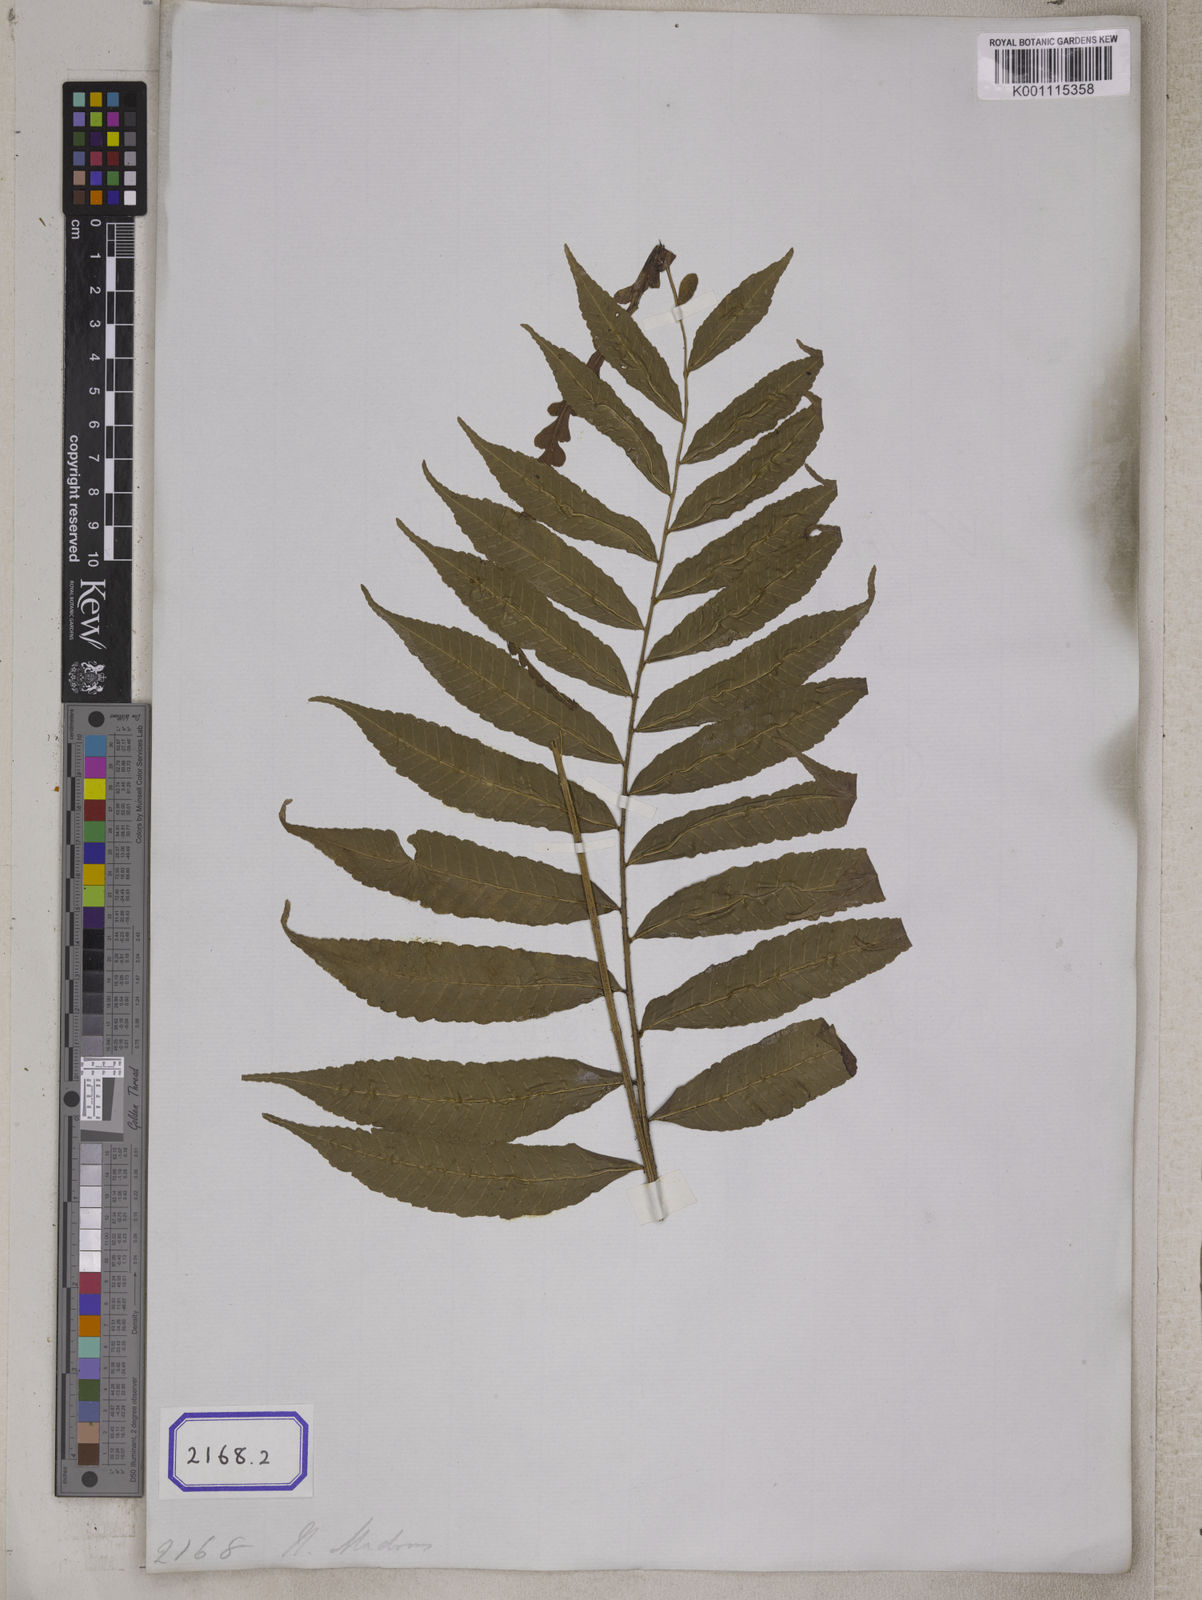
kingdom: Plantae
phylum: Tracheophyta
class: Polypodiopsida
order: Polypodiales
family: Dryopteridaceae
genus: Bolbitis
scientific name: Bolbitis terminans
